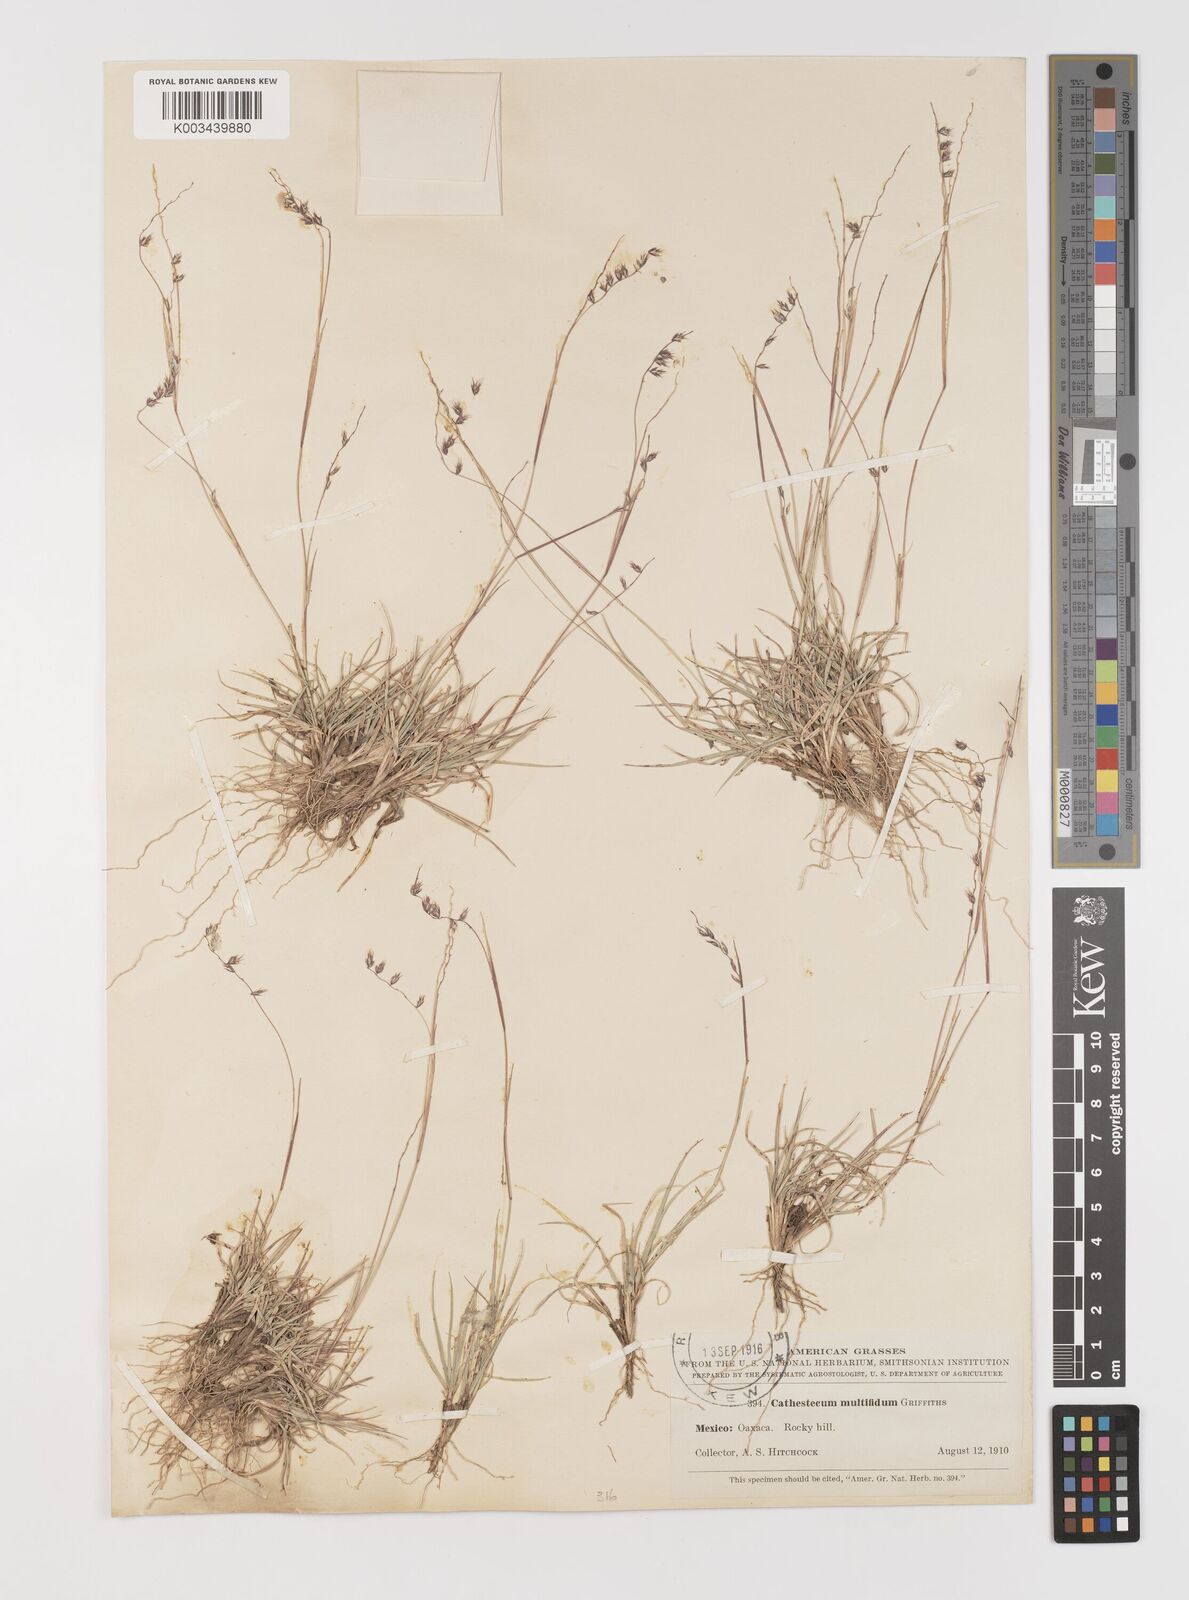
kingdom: Plantae
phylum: Tracheophyta
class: Liliopsida
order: Poales
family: Poaceae
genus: Bouteloua
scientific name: Bouteloua multifida
